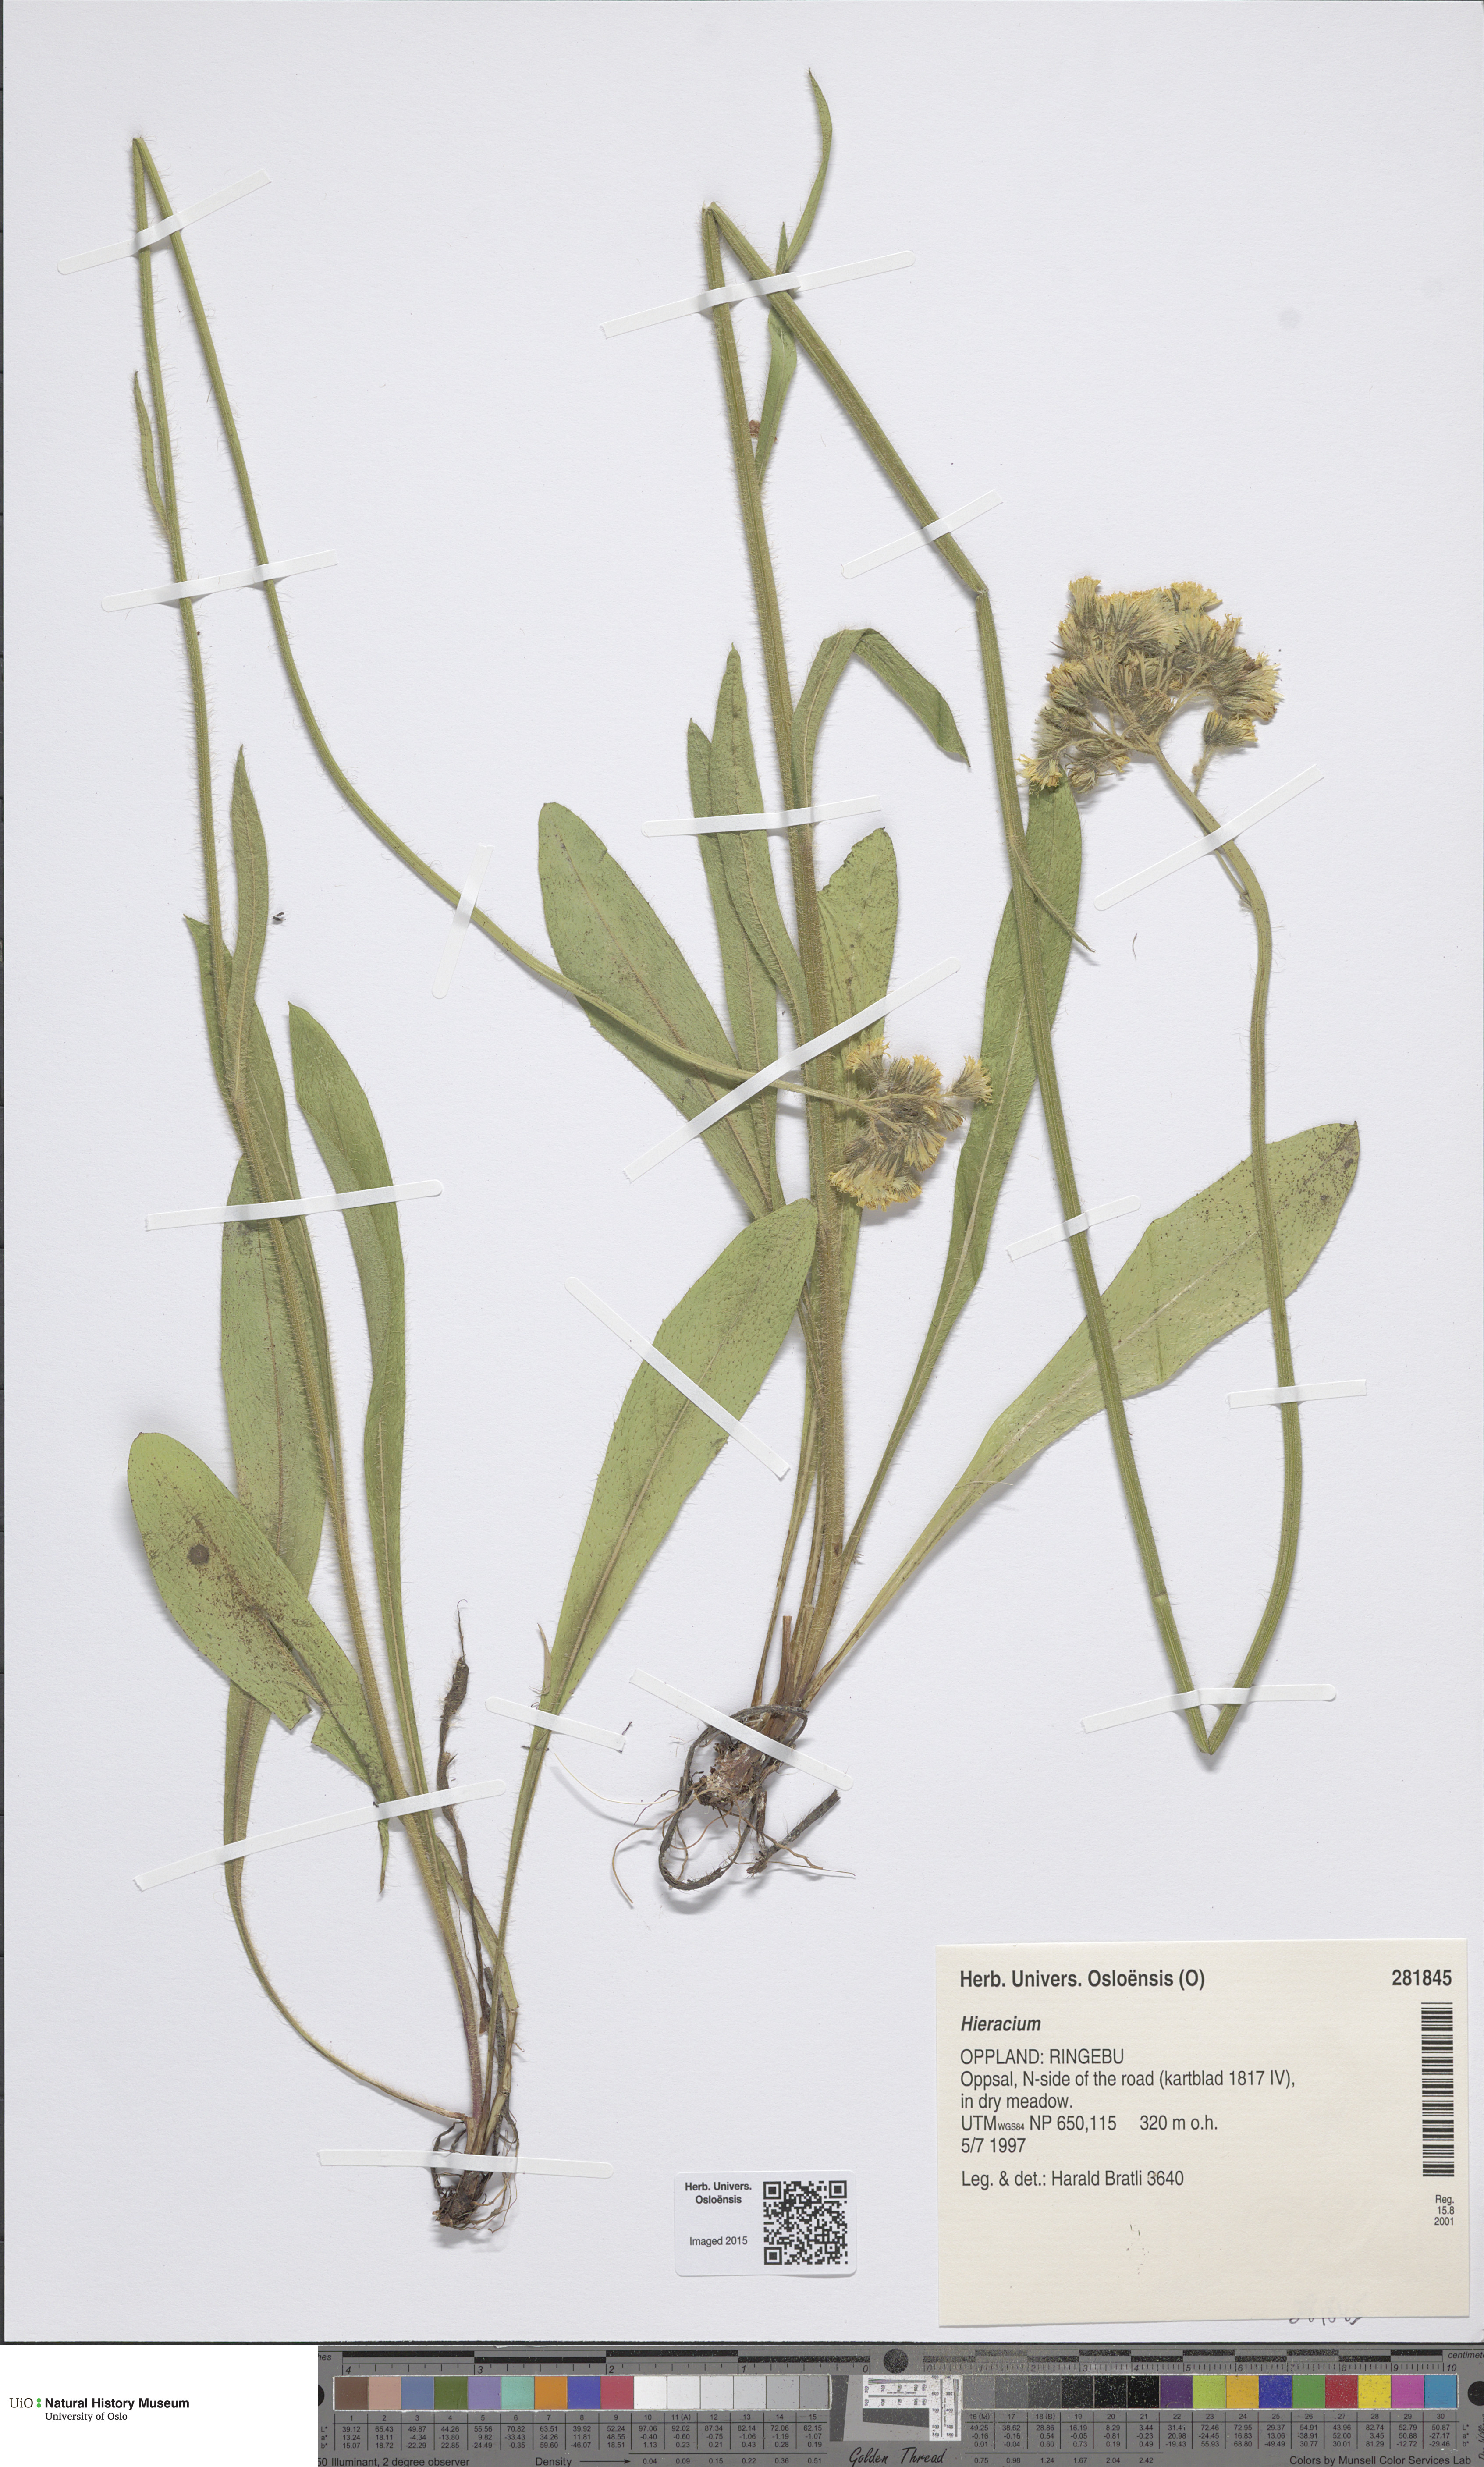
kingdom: Plantae
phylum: Tracheophyta
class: Magnoliopsida
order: Asterales
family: Asteraceae
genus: Hieracium
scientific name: Hieracium
